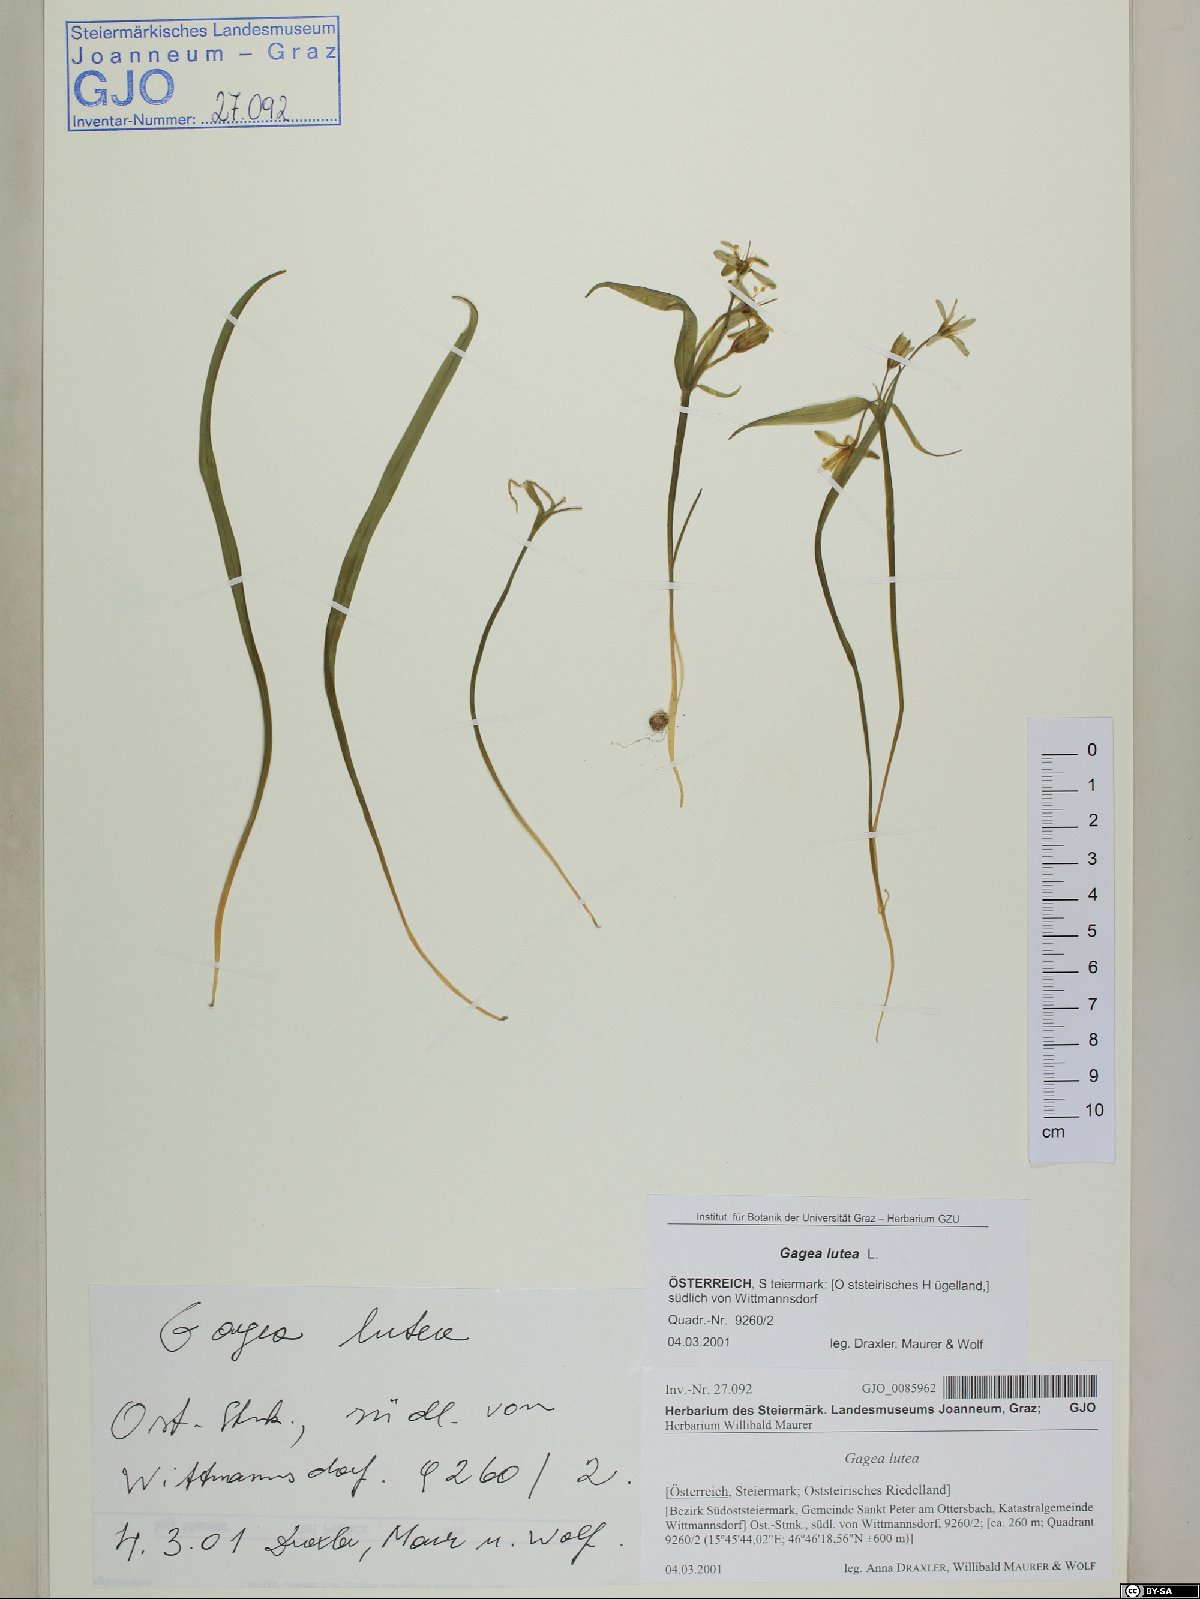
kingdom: Plantae
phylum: Tracheophyta
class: Liliopsida
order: Liliales
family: Liliaceae
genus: Gagea
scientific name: Gagea lutea
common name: Yellow star-of-bethlehem
